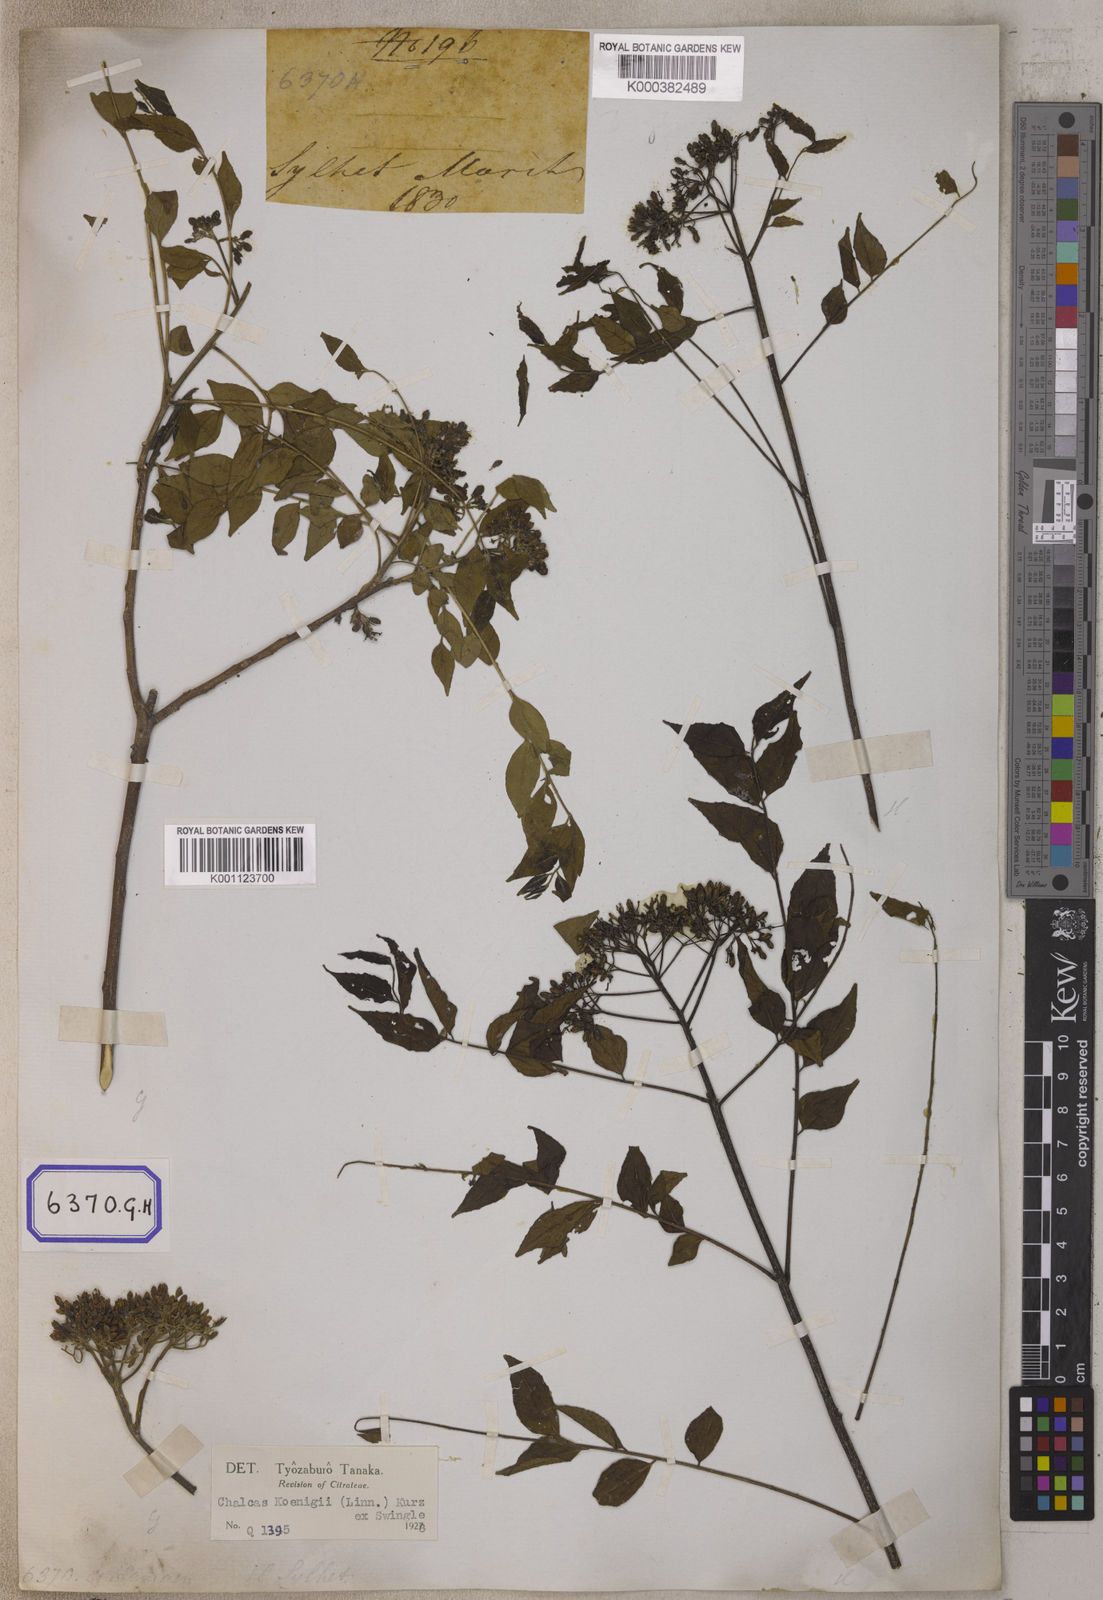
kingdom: Plantae
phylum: Tracheophyta
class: Magnoliopsida
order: Sapindales
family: Rutaceae
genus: Murraya
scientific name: Murraya koenigii
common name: Curry-plant
